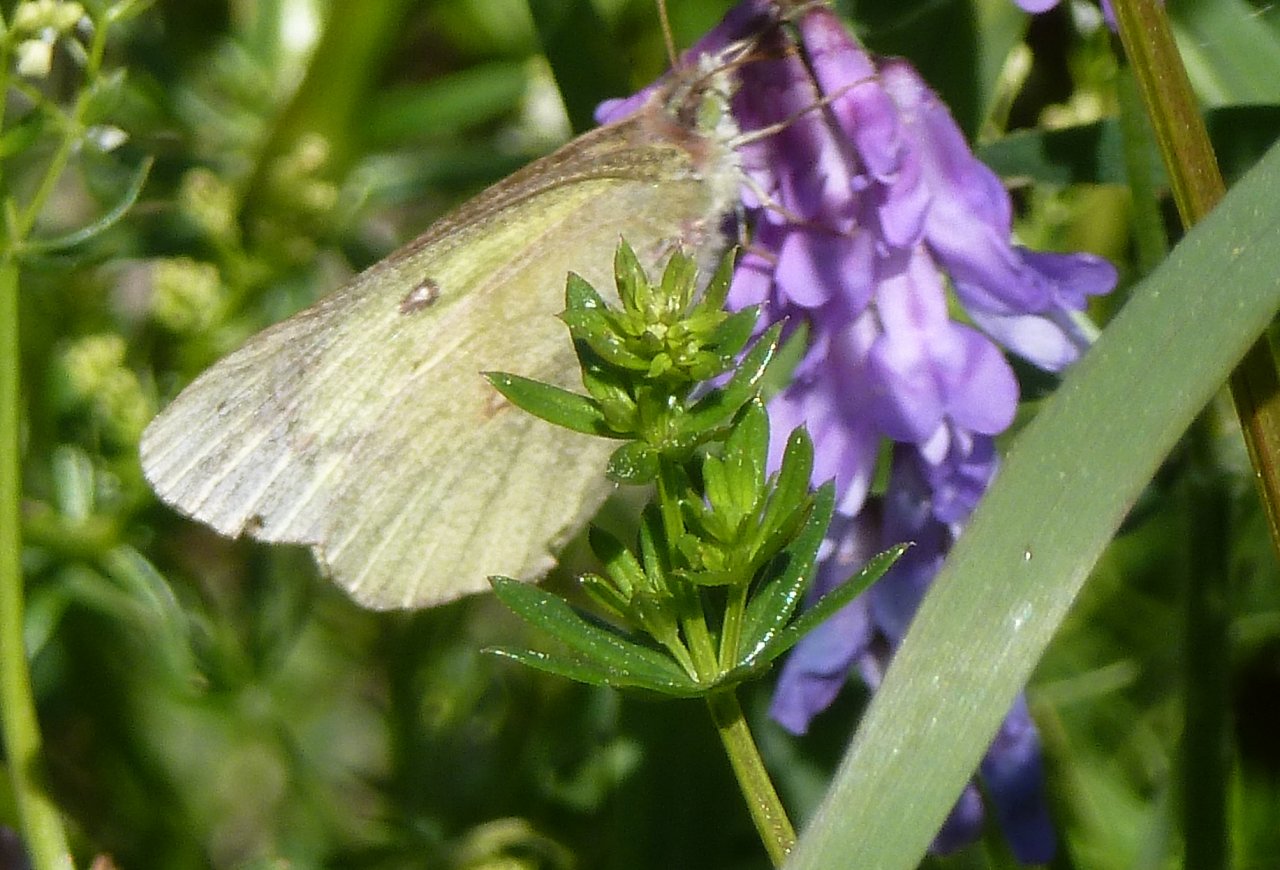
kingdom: Animalia
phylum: Arthropoda
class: Insecta
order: Lepidoptera
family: Pieridae
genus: Colias
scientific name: Colias philodice
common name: Clouded Sulphur
